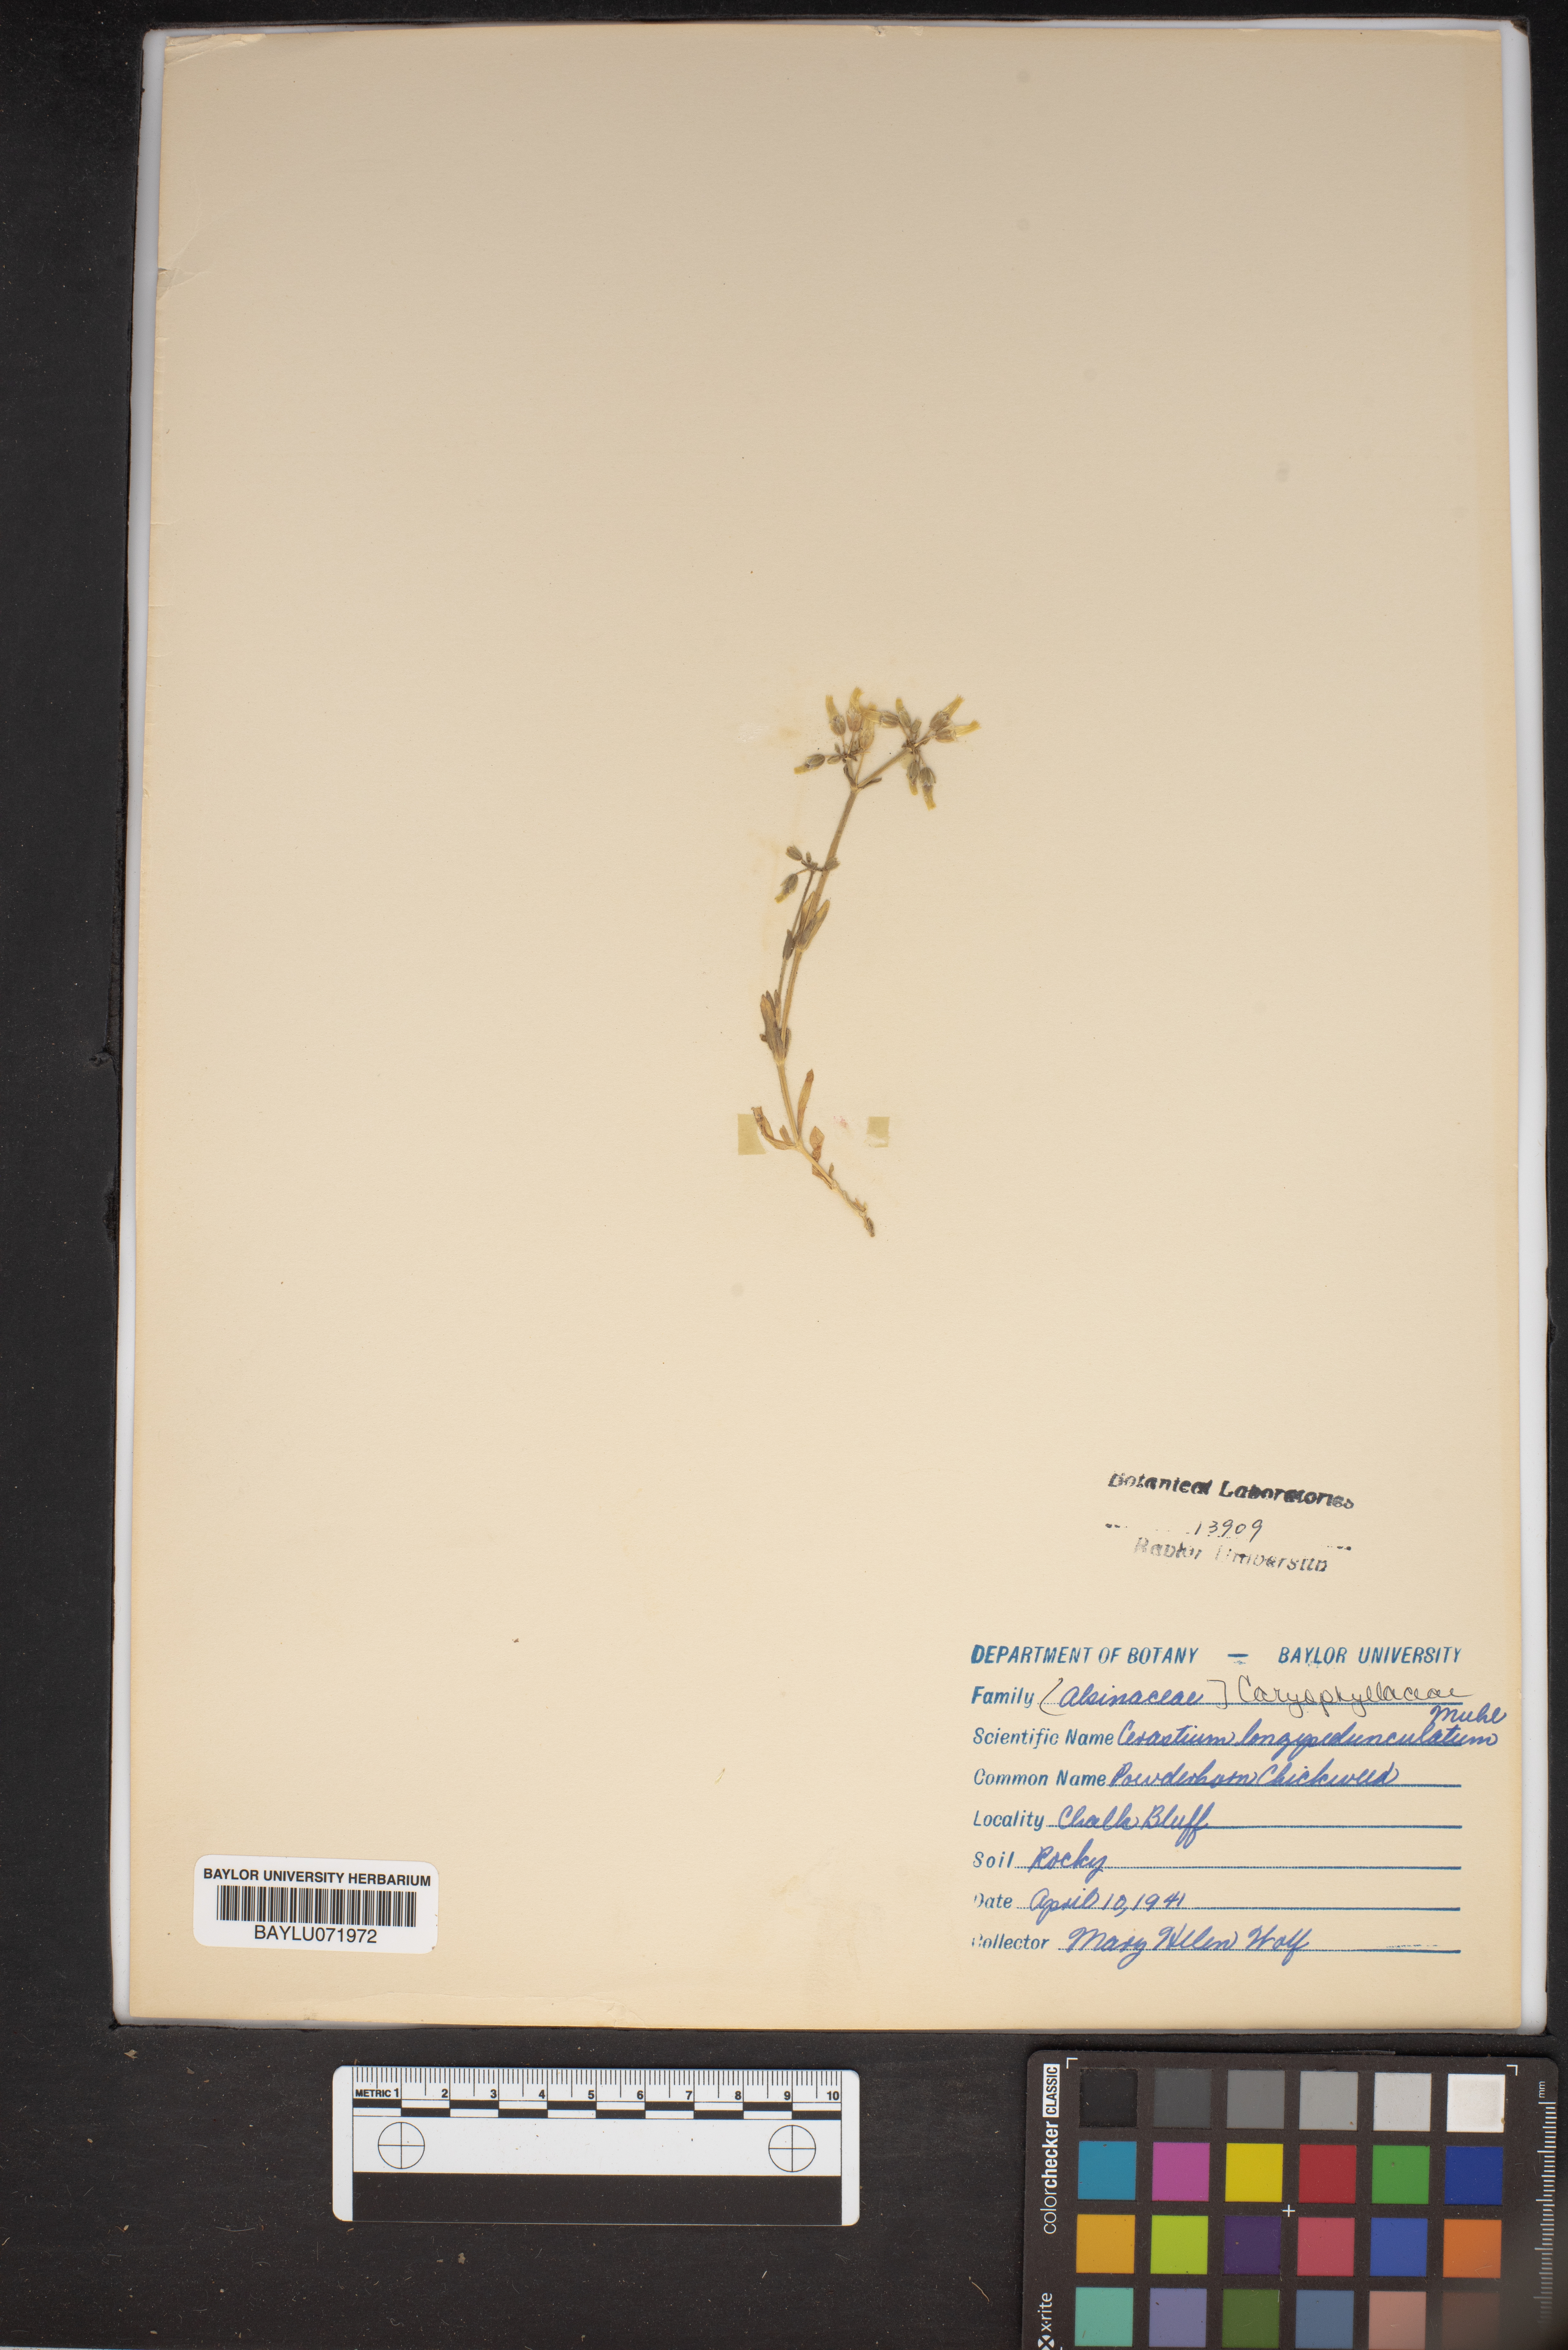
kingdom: Plantae
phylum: Tracheophyta
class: Magnoliopsida
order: Caryophyllales
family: Caryophyllaceae
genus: Cerastium
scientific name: Cerastium nutans
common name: Long-stalked chickweed
